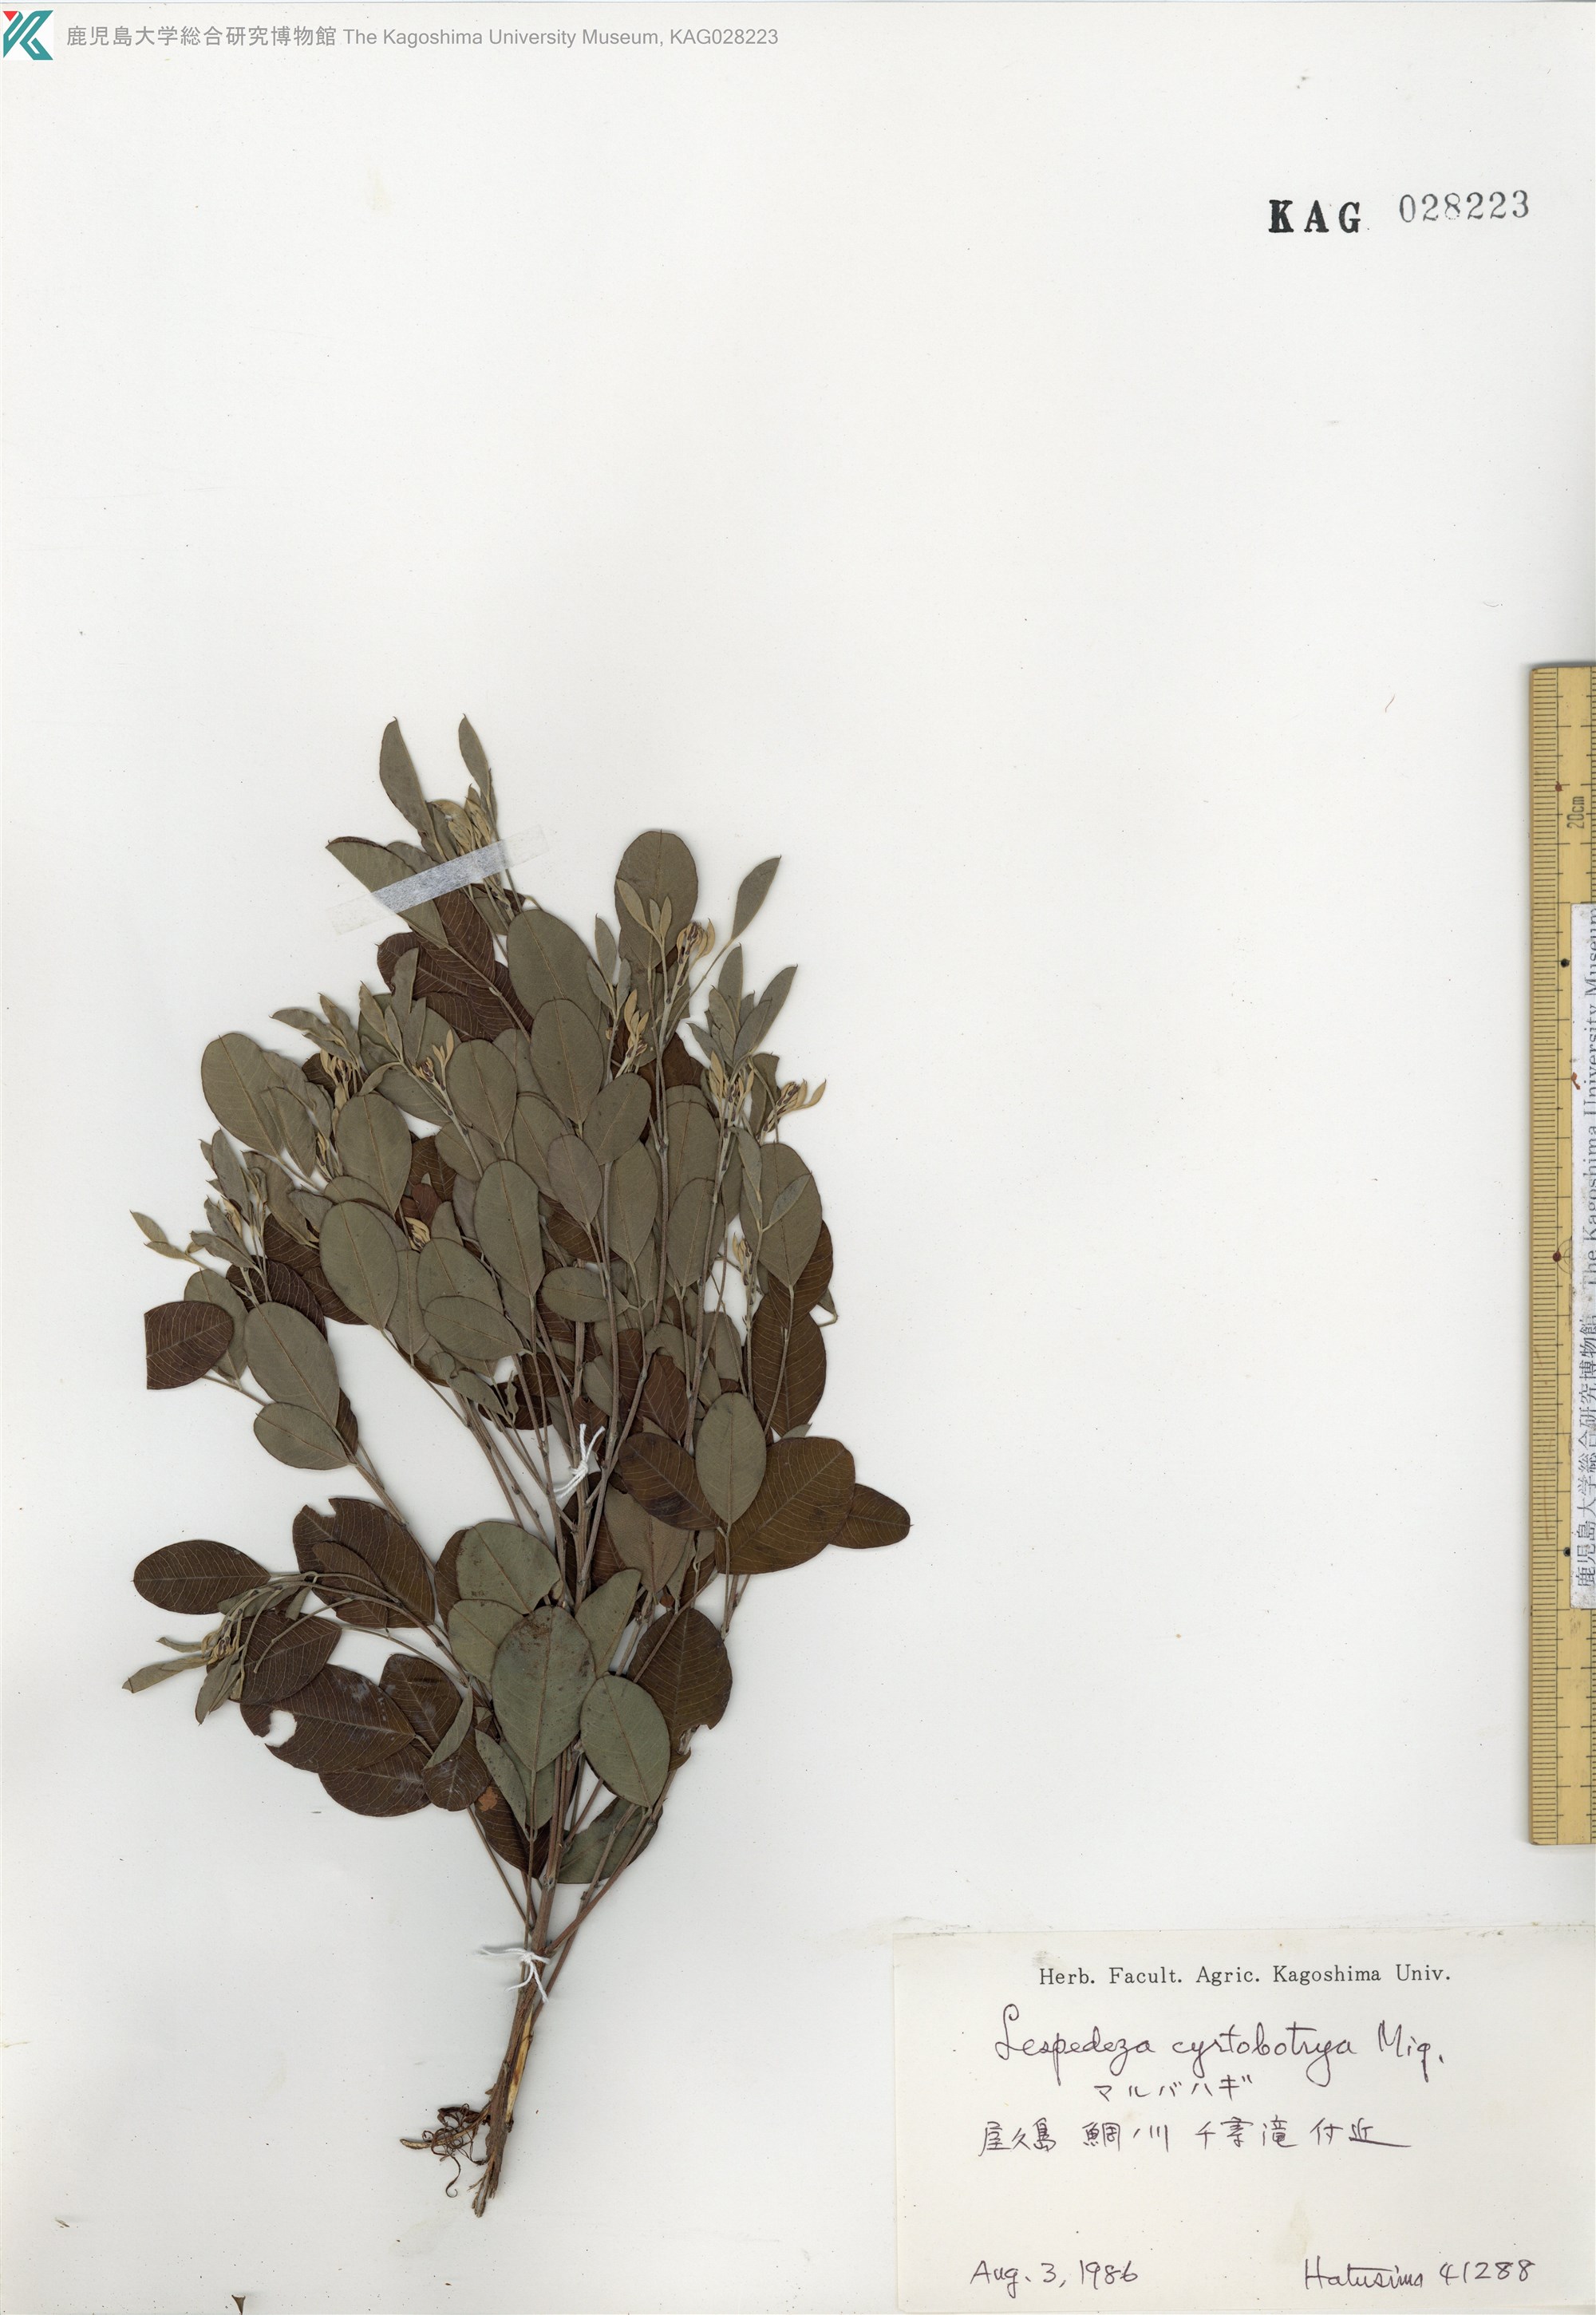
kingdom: Plantae
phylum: Tracheophyta
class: Magnoliopsida
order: Fabales
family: Fabaceae
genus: Lespedeza
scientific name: Lespedeza cyrtobotrya
